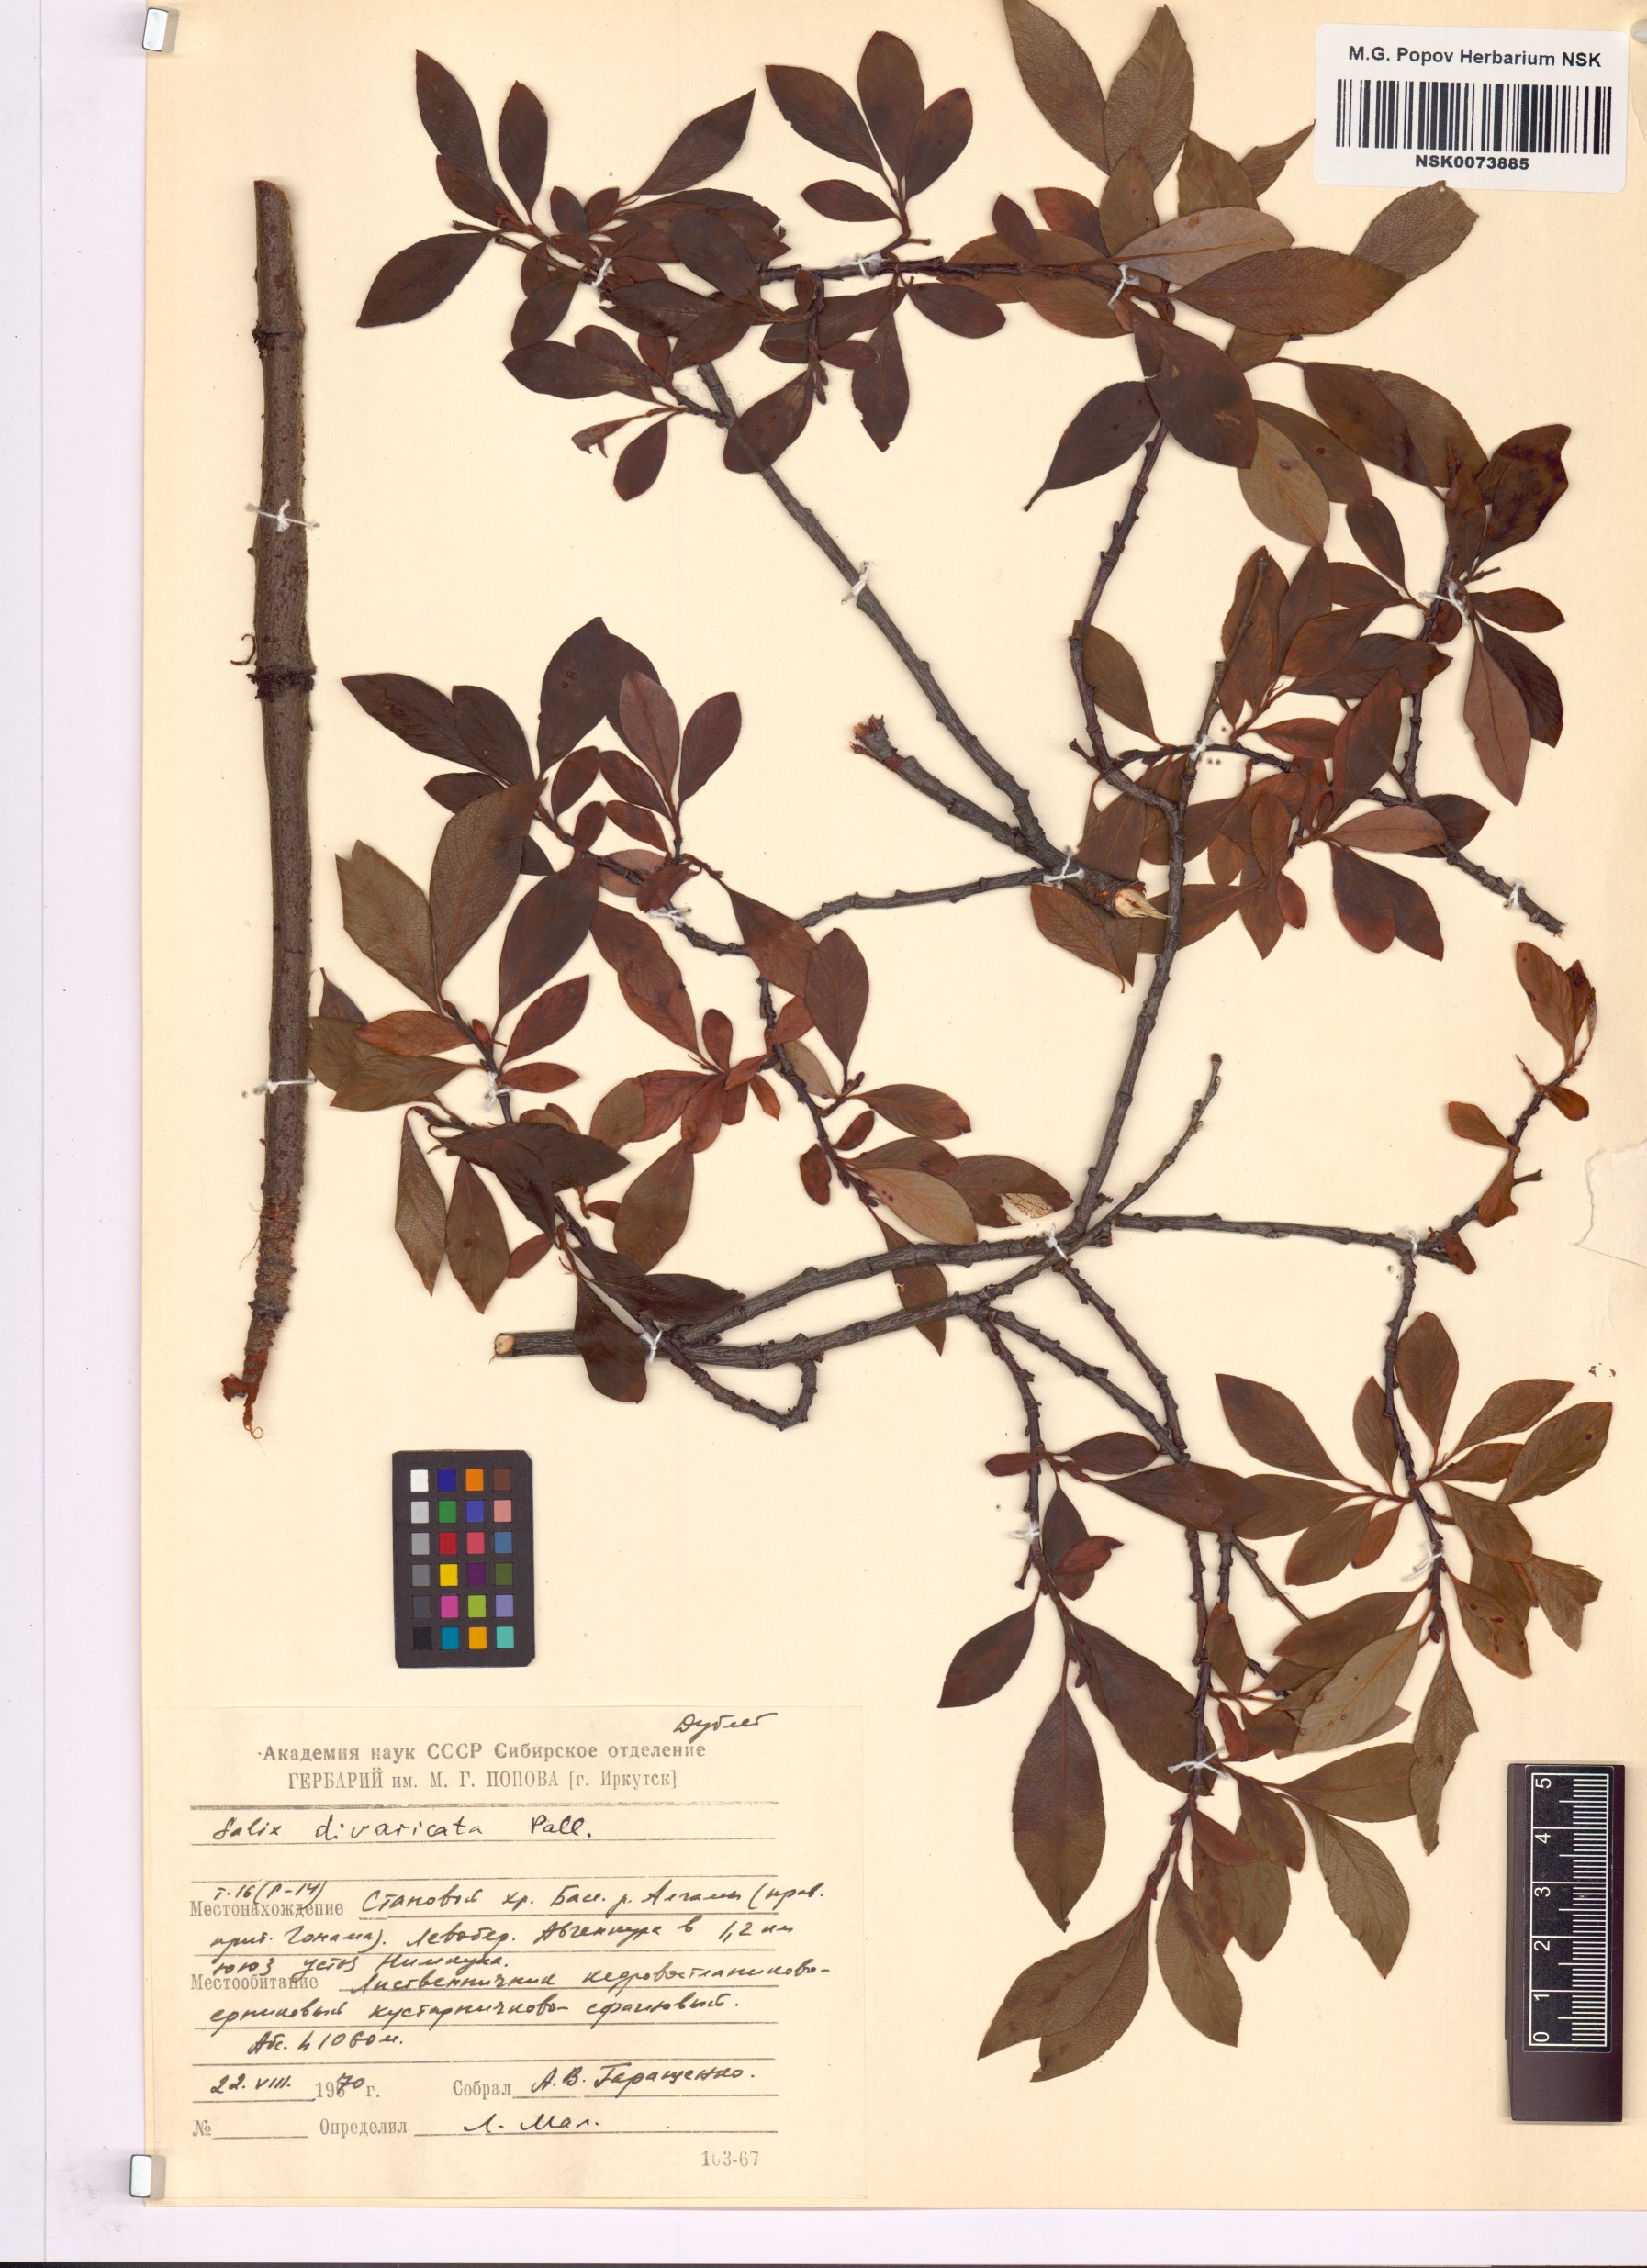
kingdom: Plantae
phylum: Tracheophyta
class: Magnoliopsida
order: Malpighiales
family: Salicaceae
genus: Salix
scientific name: Salix divaricata
